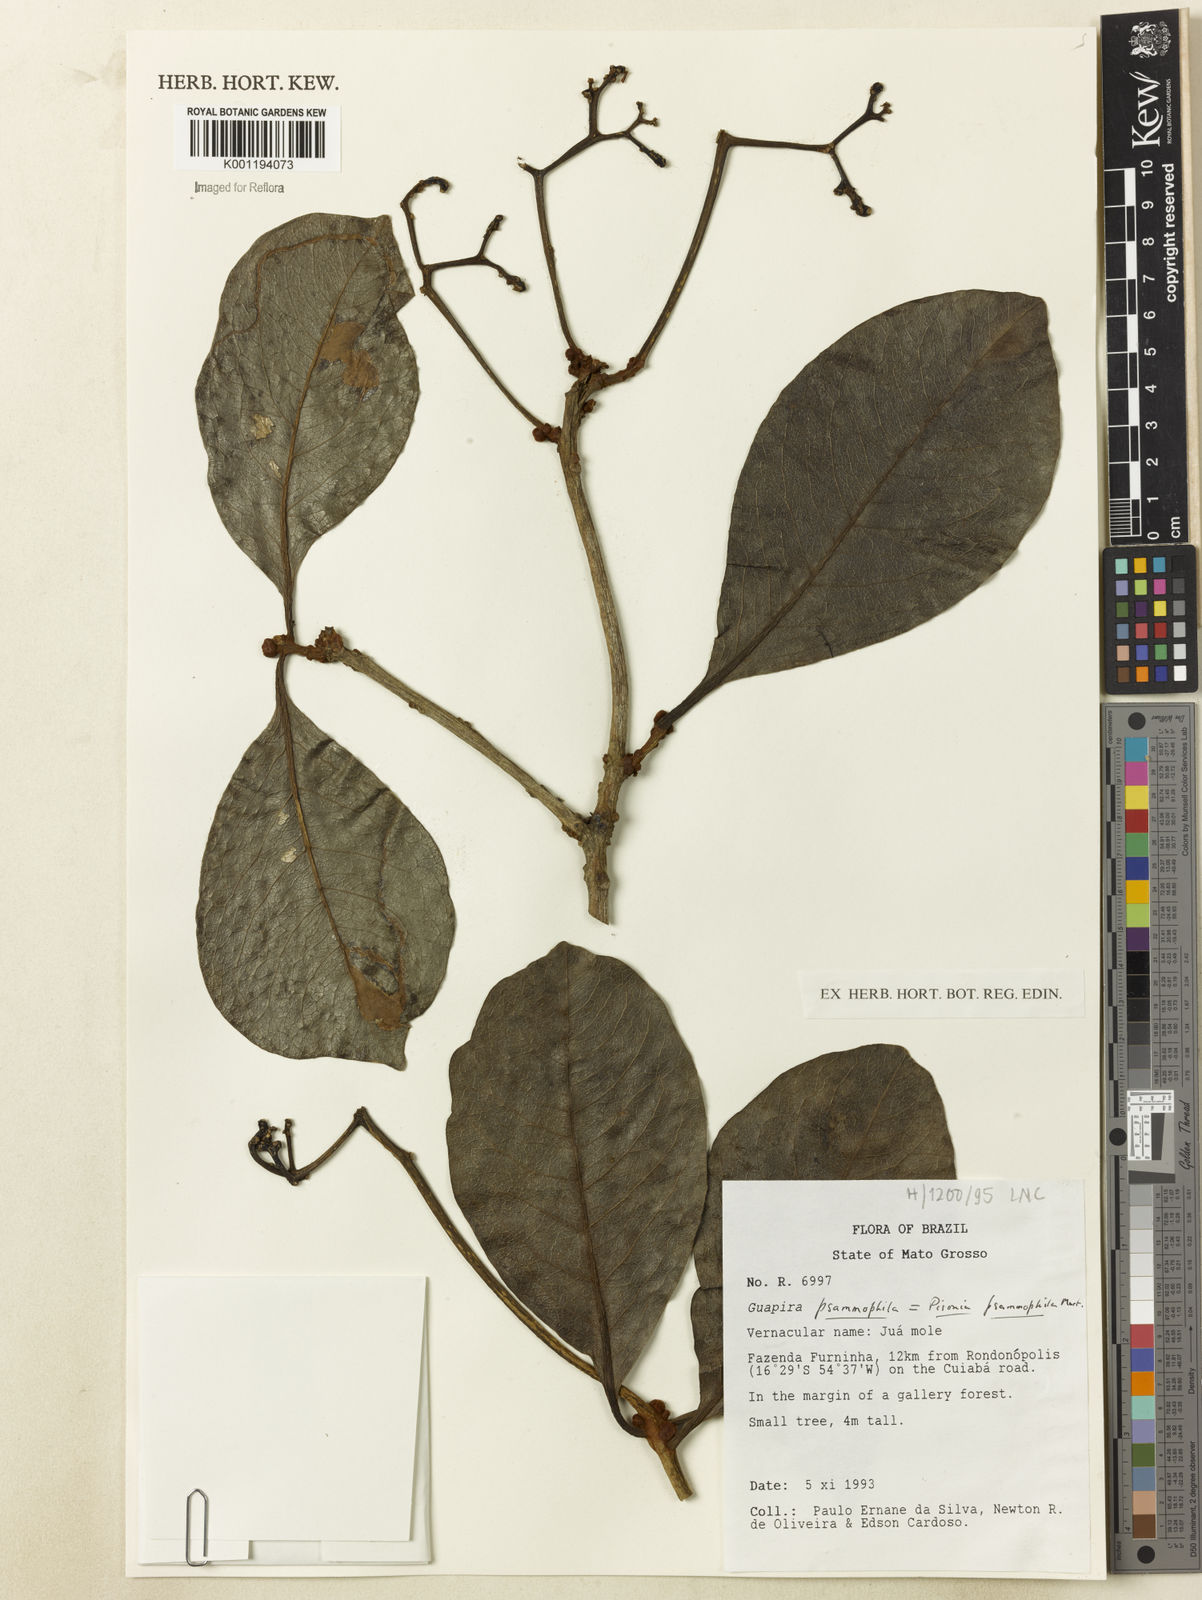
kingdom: Plantae
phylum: Tracheophyta
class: Magnoliopsida
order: Caryophyllales
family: Nyctaginaceae
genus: Guapira
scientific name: Guapira laxa
